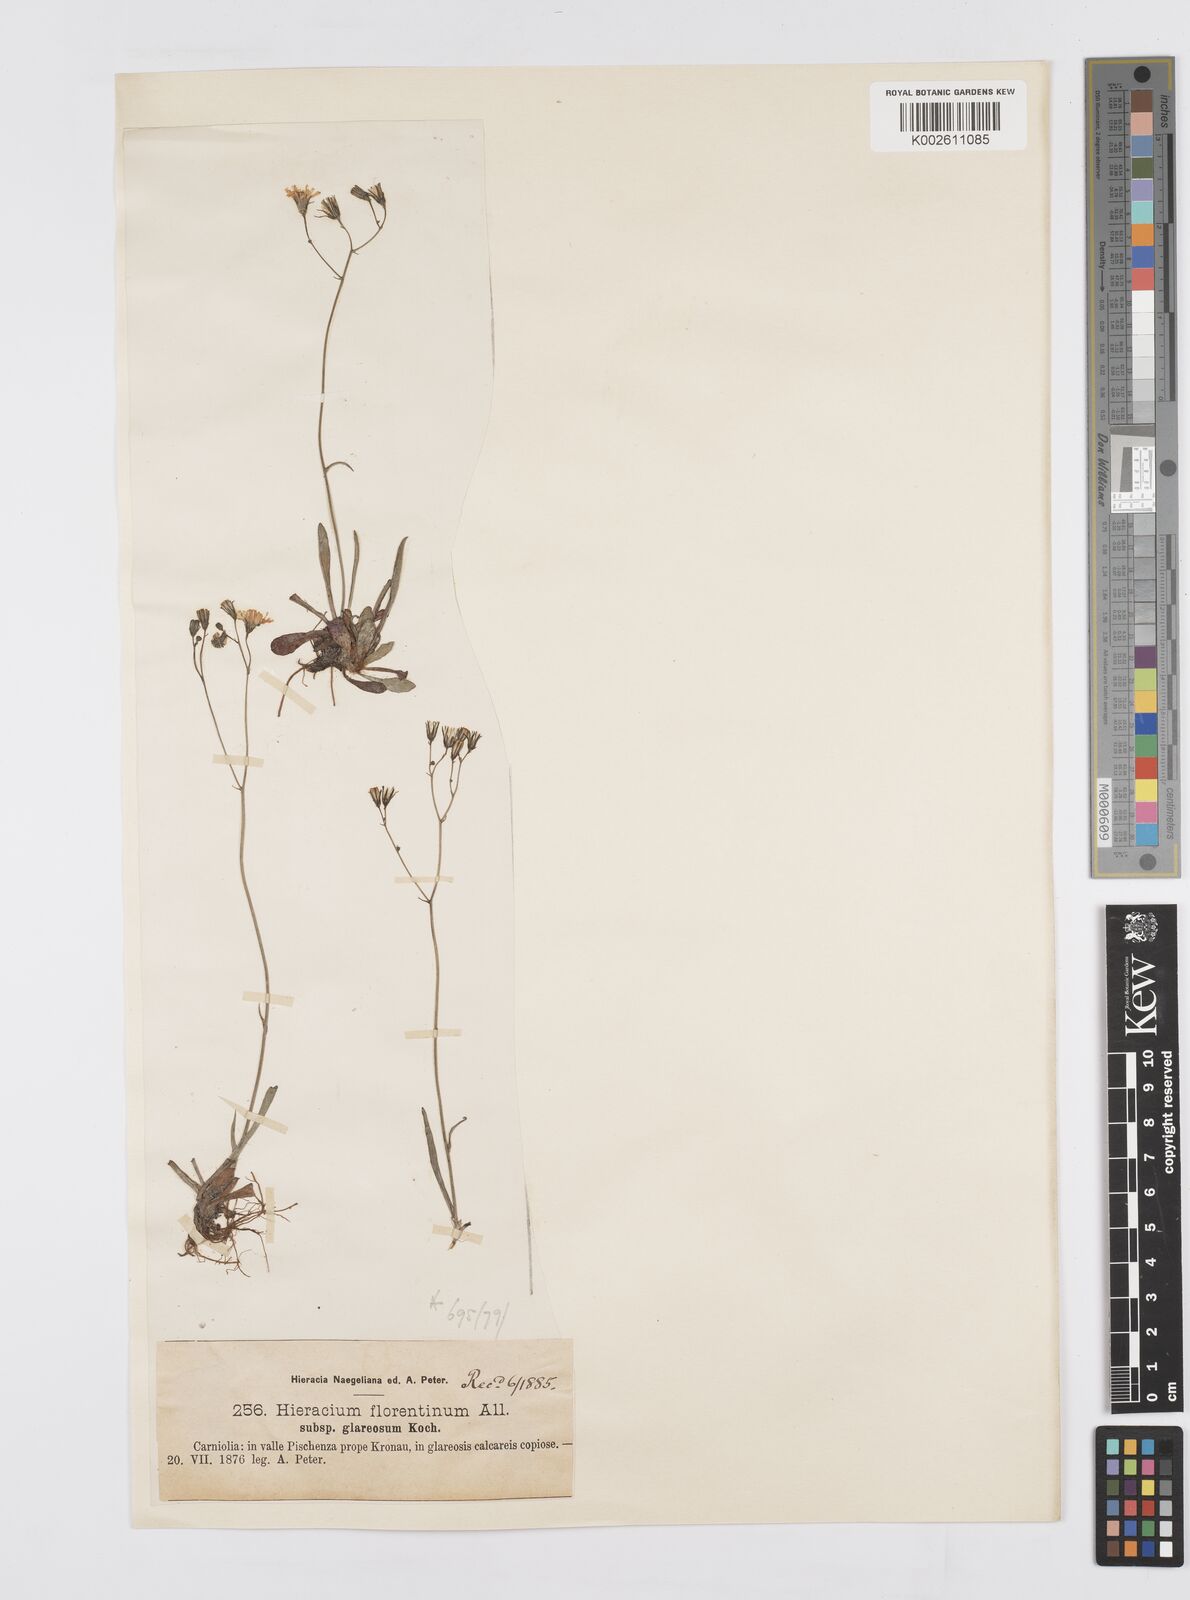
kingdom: Plantae
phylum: Tracheophyta
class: Magnoliopsida
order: Asterales
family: Asteraceae
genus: Pilosella
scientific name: Pilosella piloselloides
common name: Glaucous king-devil
